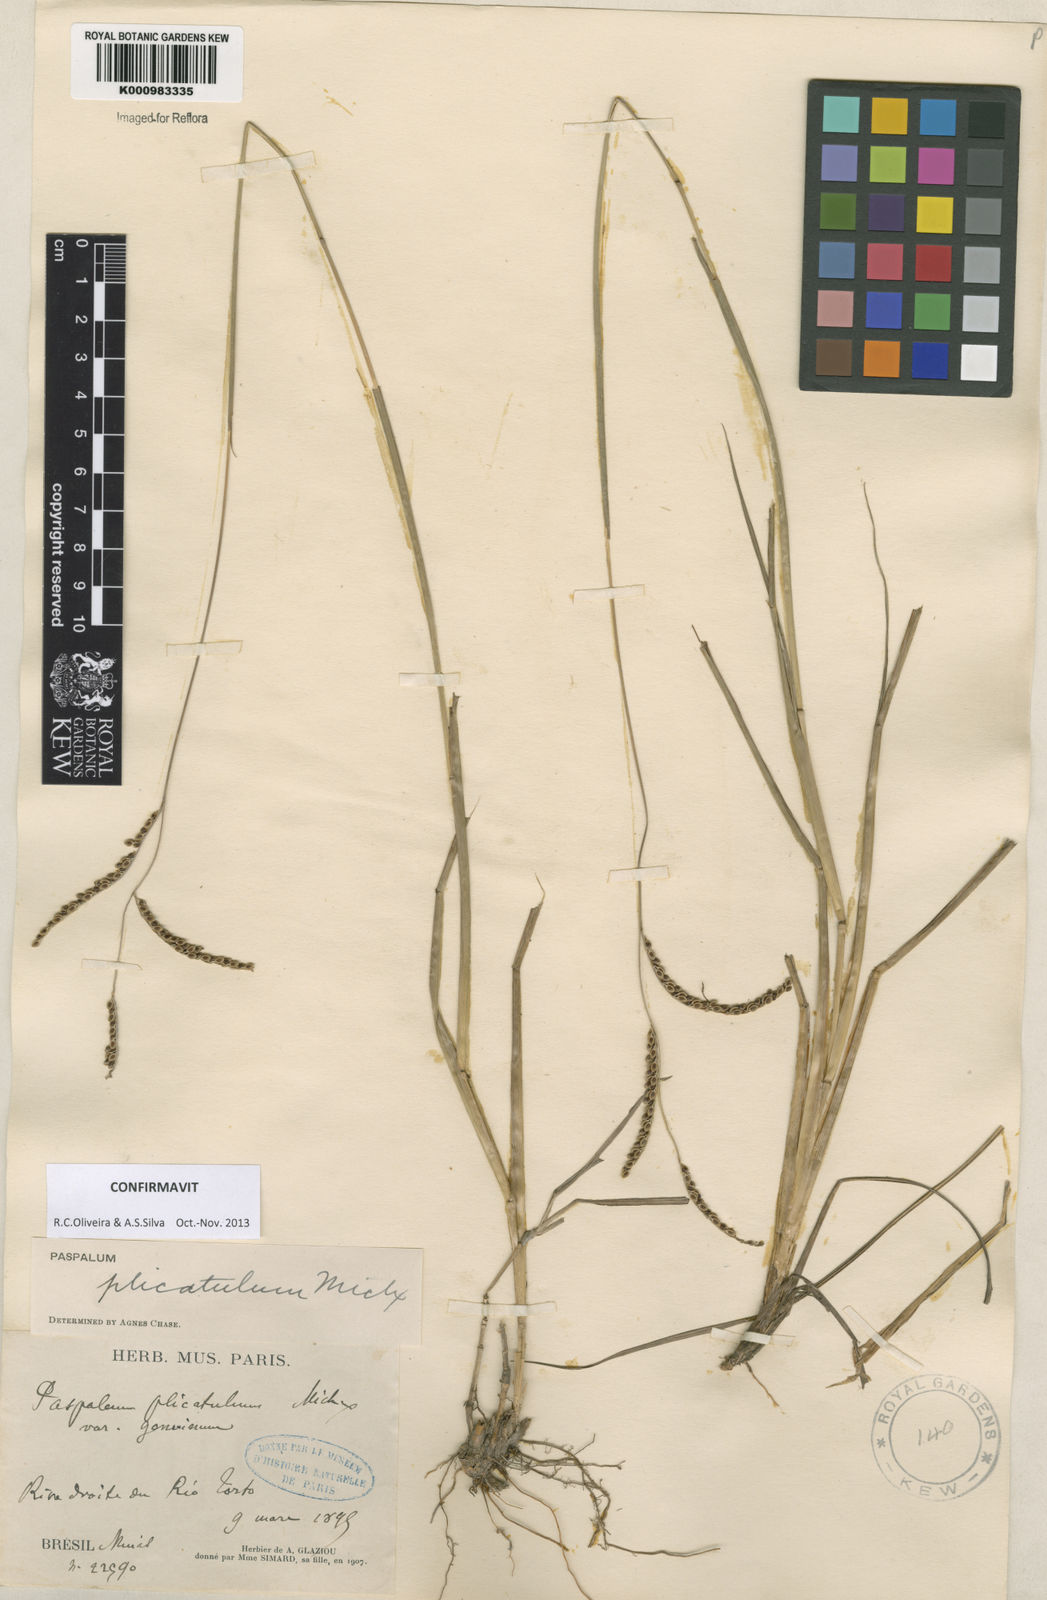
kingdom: Plantae
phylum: Tracheophyta
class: Liliopsida
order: Poales
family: Poaceae
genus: Paspalum
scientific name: Paspalum plicatulum
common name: Top paspalum
